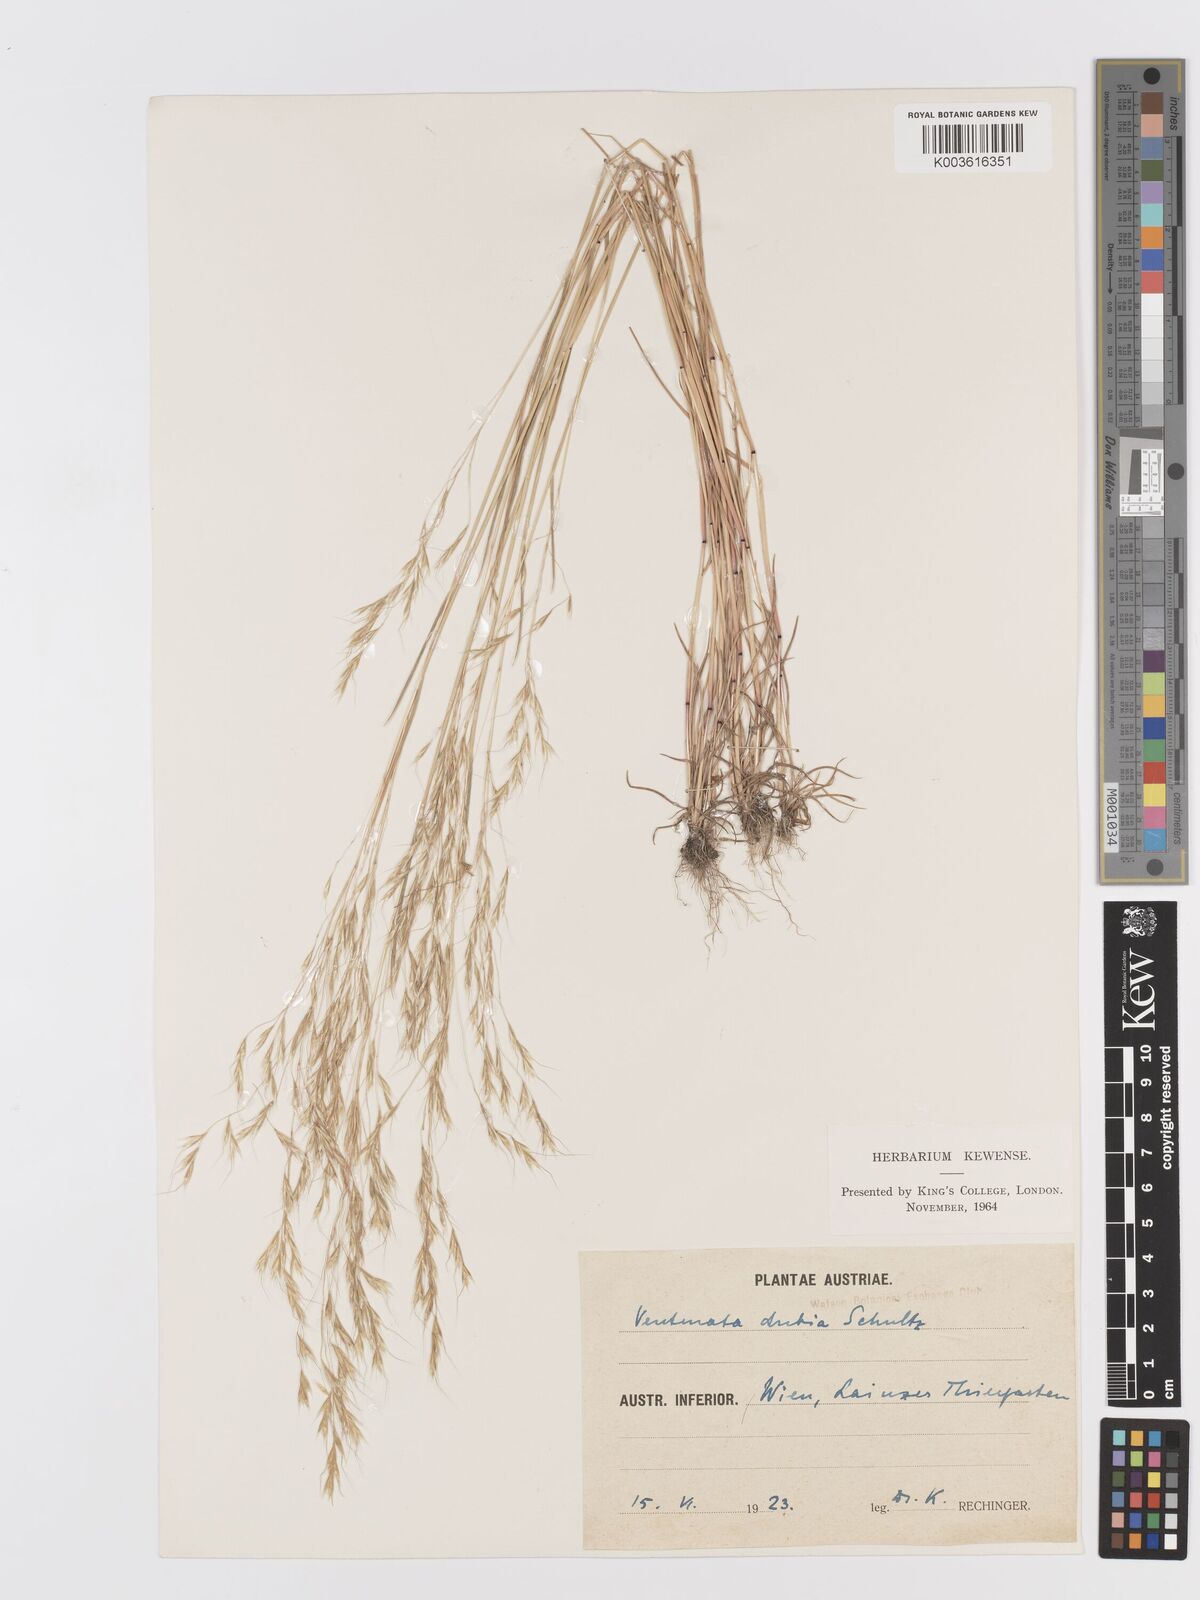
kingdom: Plantae
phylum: Tracheophyta
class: Liliopsida
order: Poales
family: Poaceae
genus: Ventenata
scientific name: Ventenata dubia
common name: North africa grass
